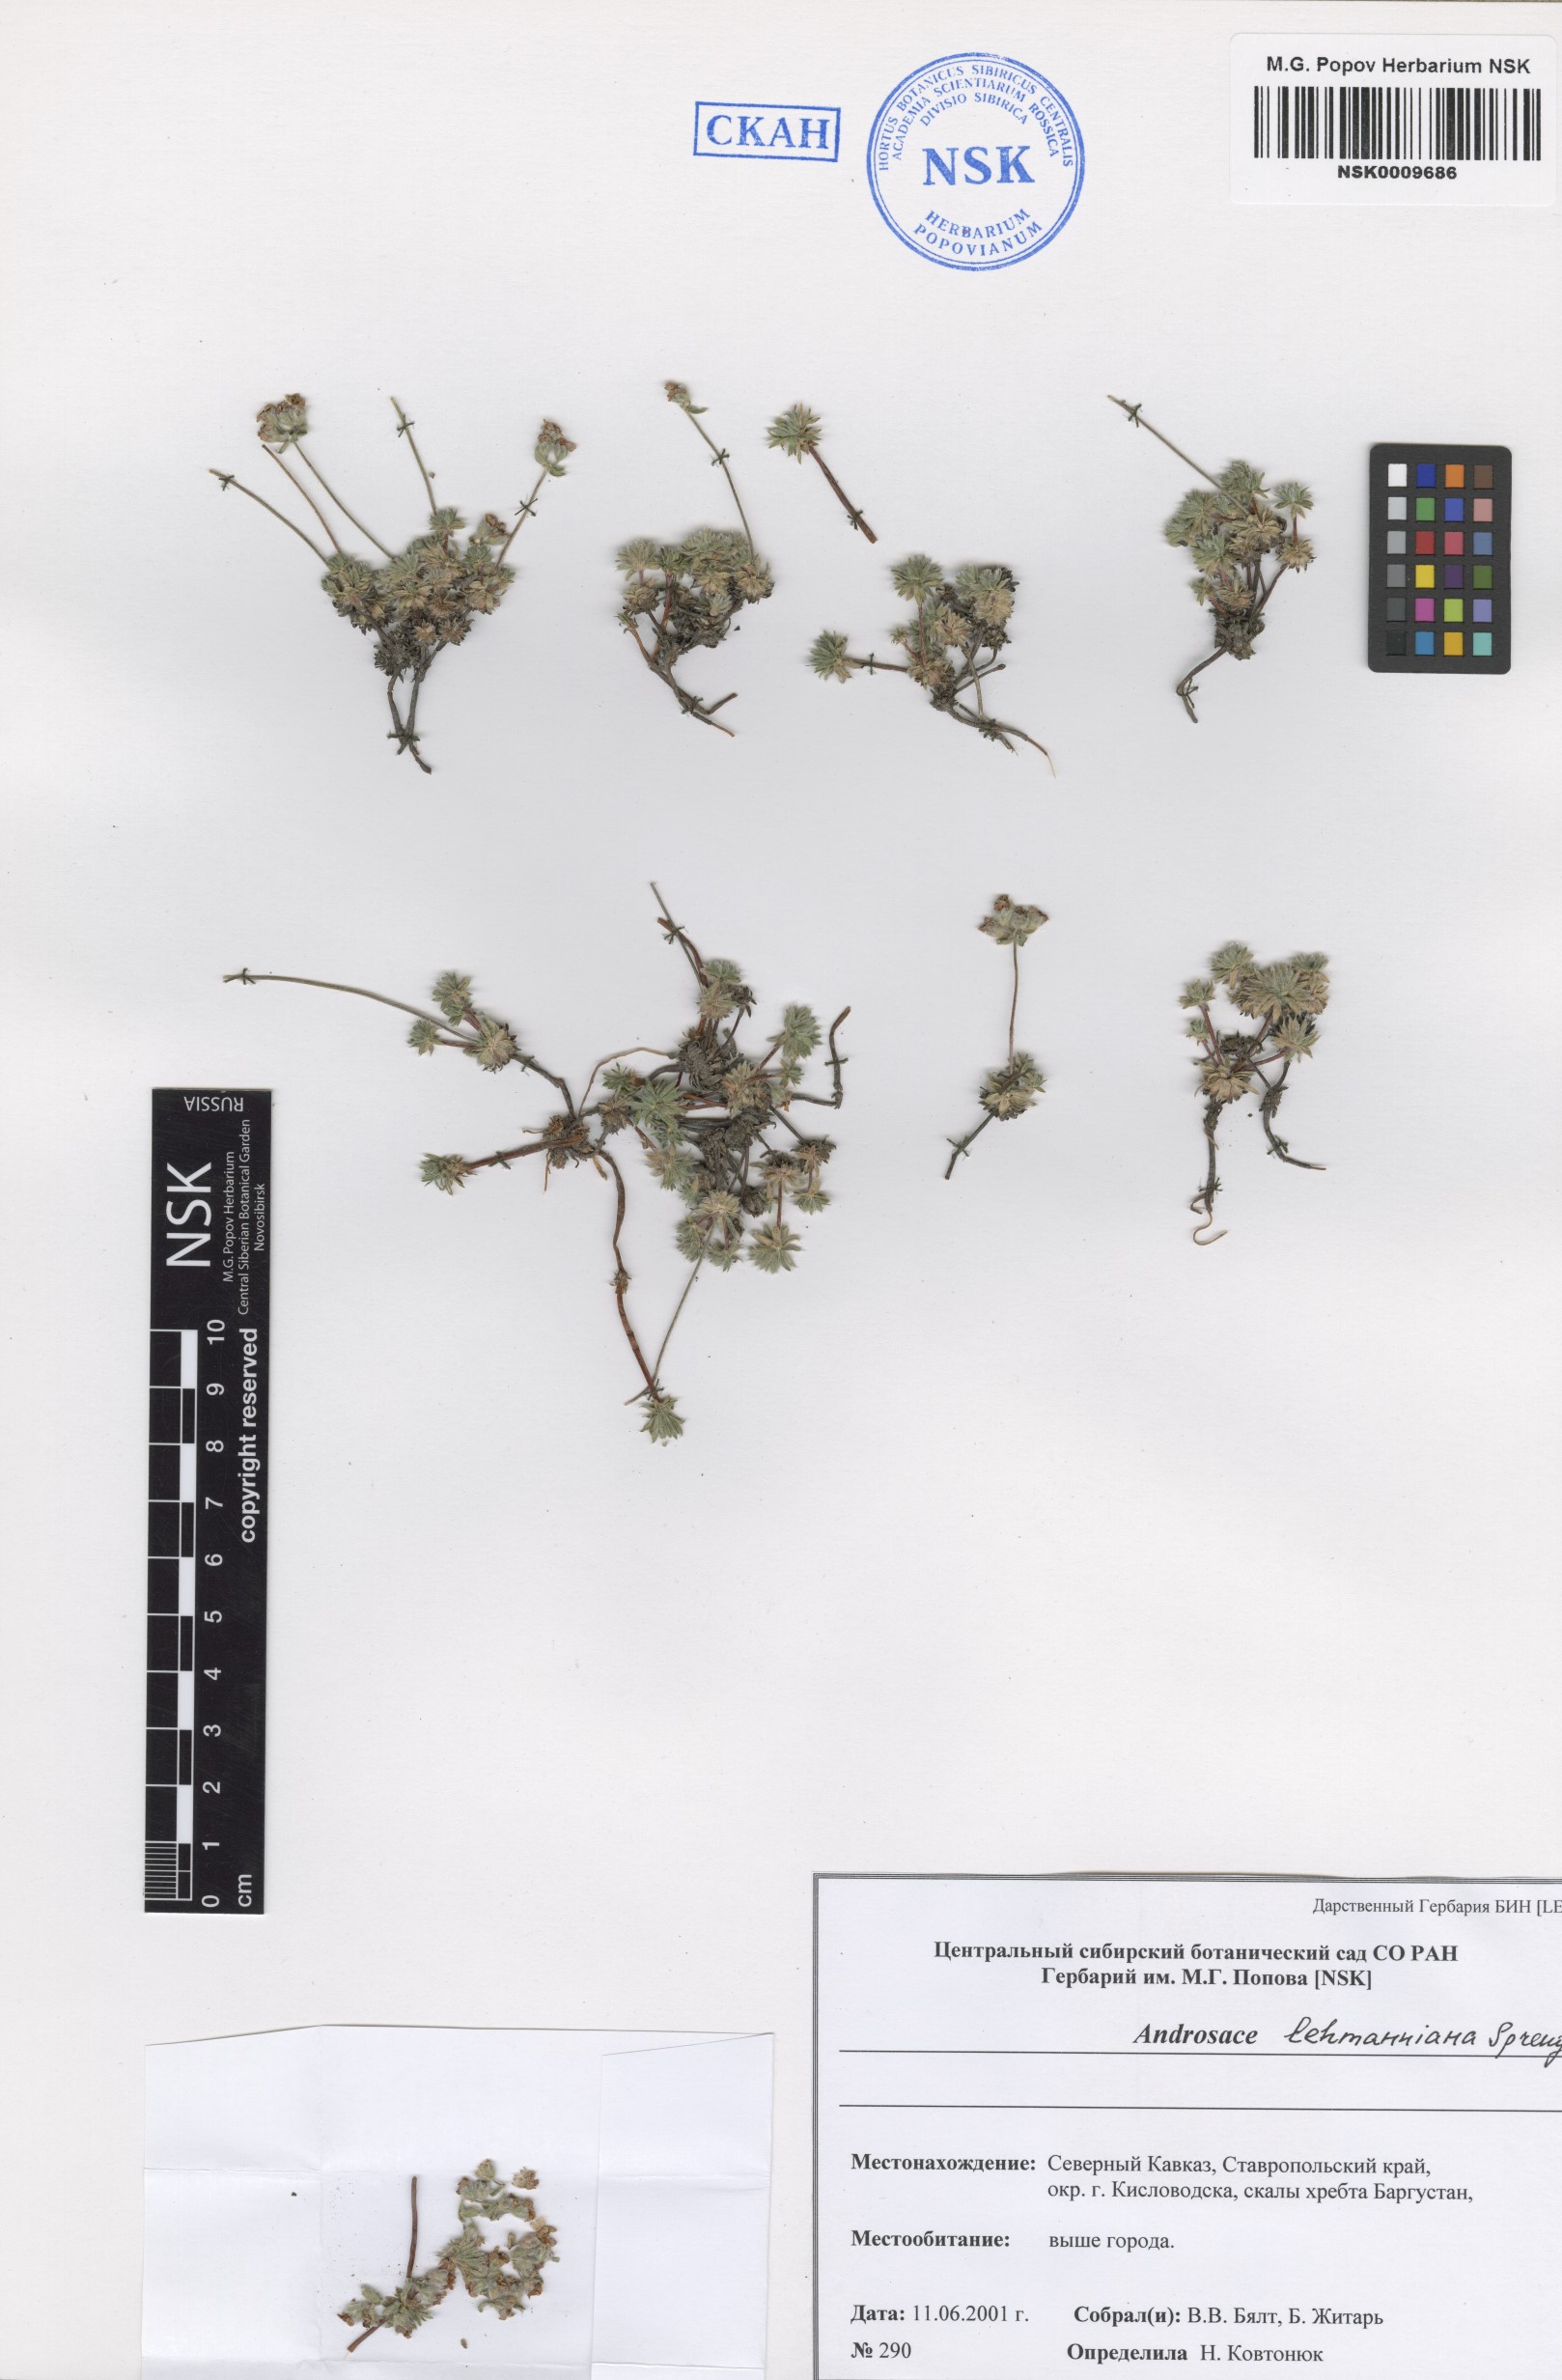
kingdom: Plantae
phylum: Tracheophyta
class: Magnoliopsida
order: Ericales
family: Primulaceae
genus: Androsace
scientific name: Androsace chamaejasme
